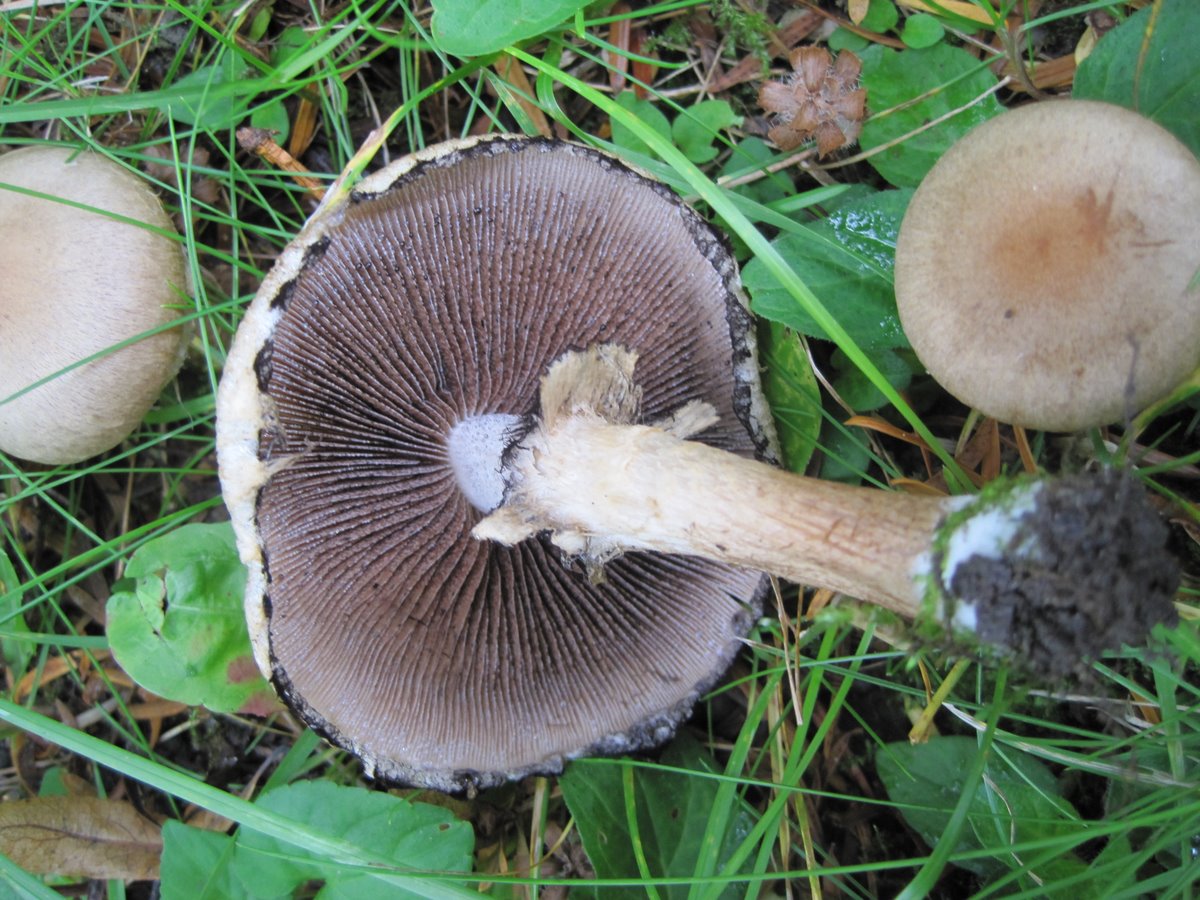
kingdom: Fungi
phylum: Basidiomycota
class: Agaricomycetes
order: Agaricales
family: Psathyrellaceae
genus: Lacrymaria
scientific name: Lacrymaria lacrymabunda
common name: grædende mørkhat
